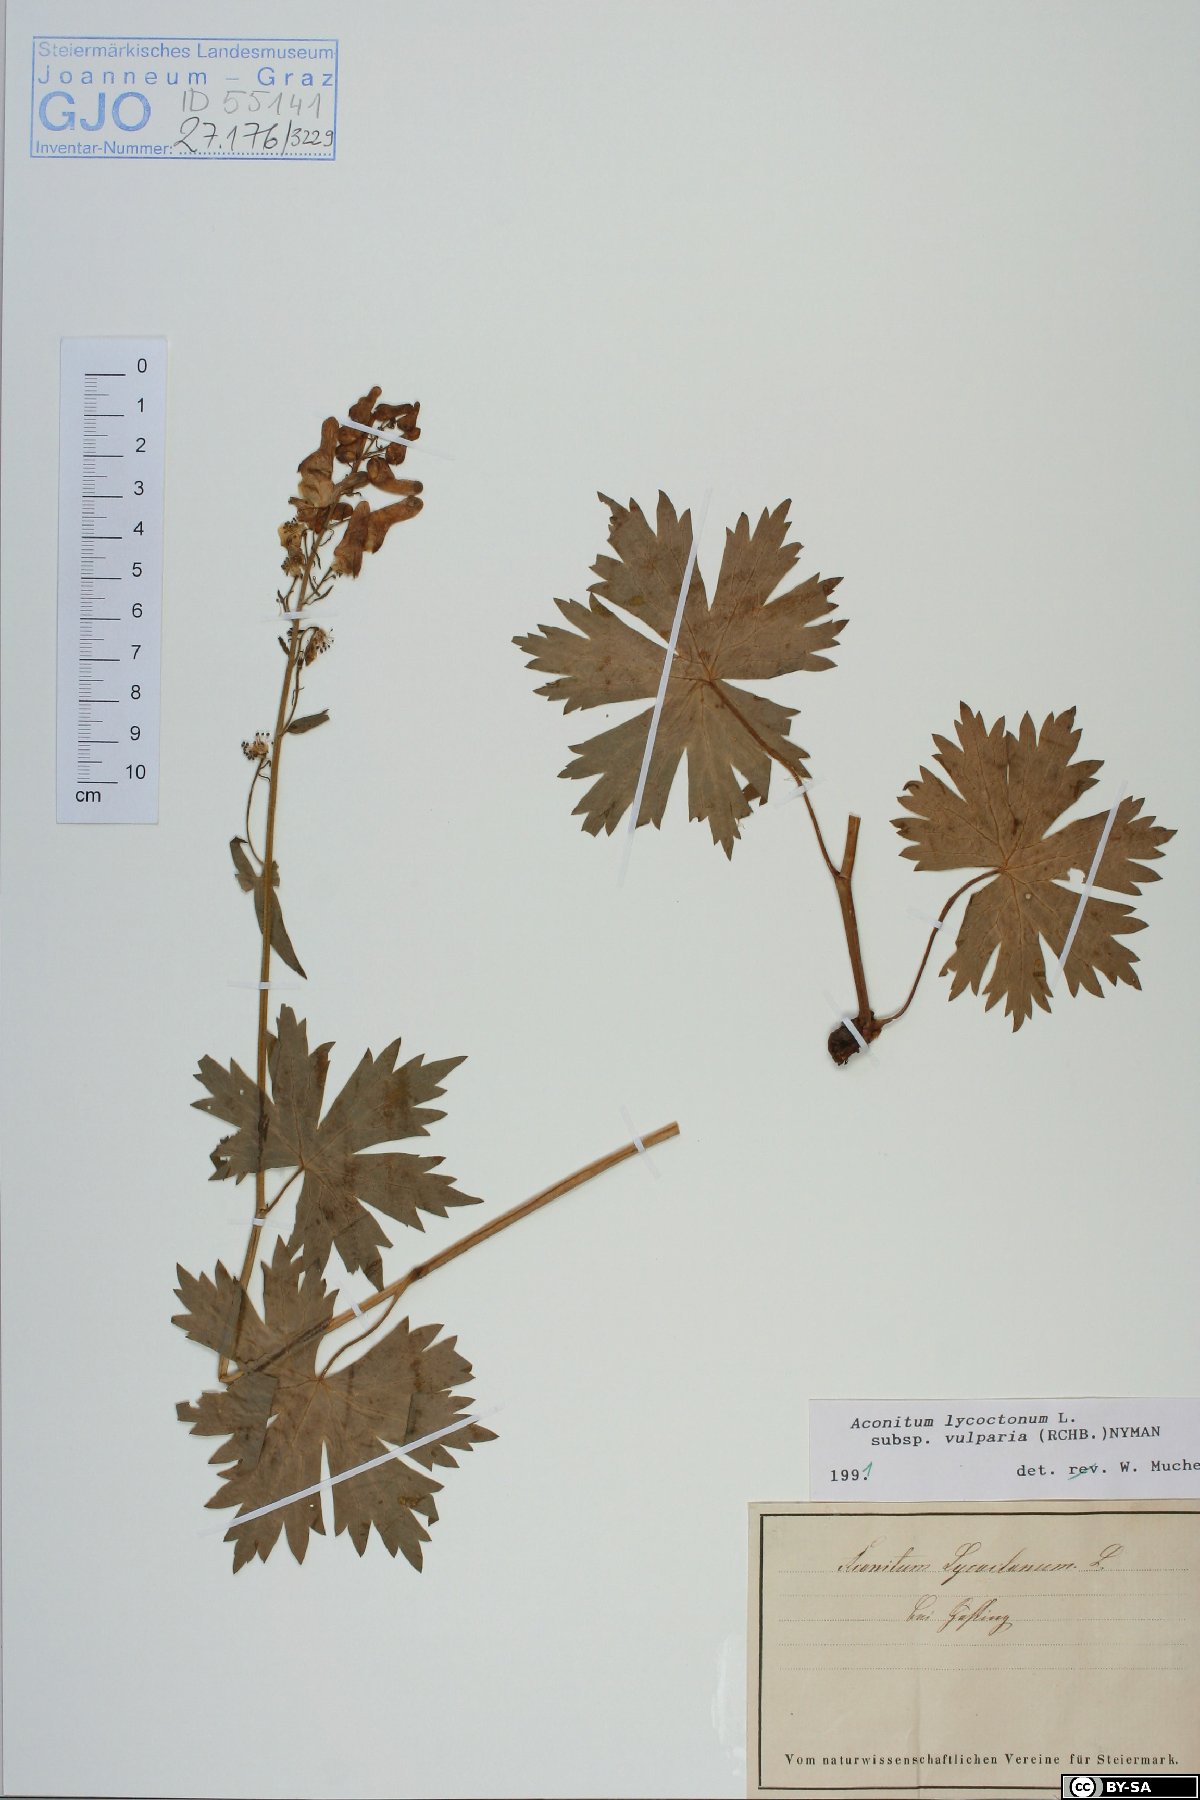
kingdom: Plantae
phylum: Tracheophyta
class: Magnoliopsida
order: Ranunculales
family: Ranunculaceae
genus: Aconitum
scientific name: Aconitum lycoctonum
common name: Wolf's-bane
